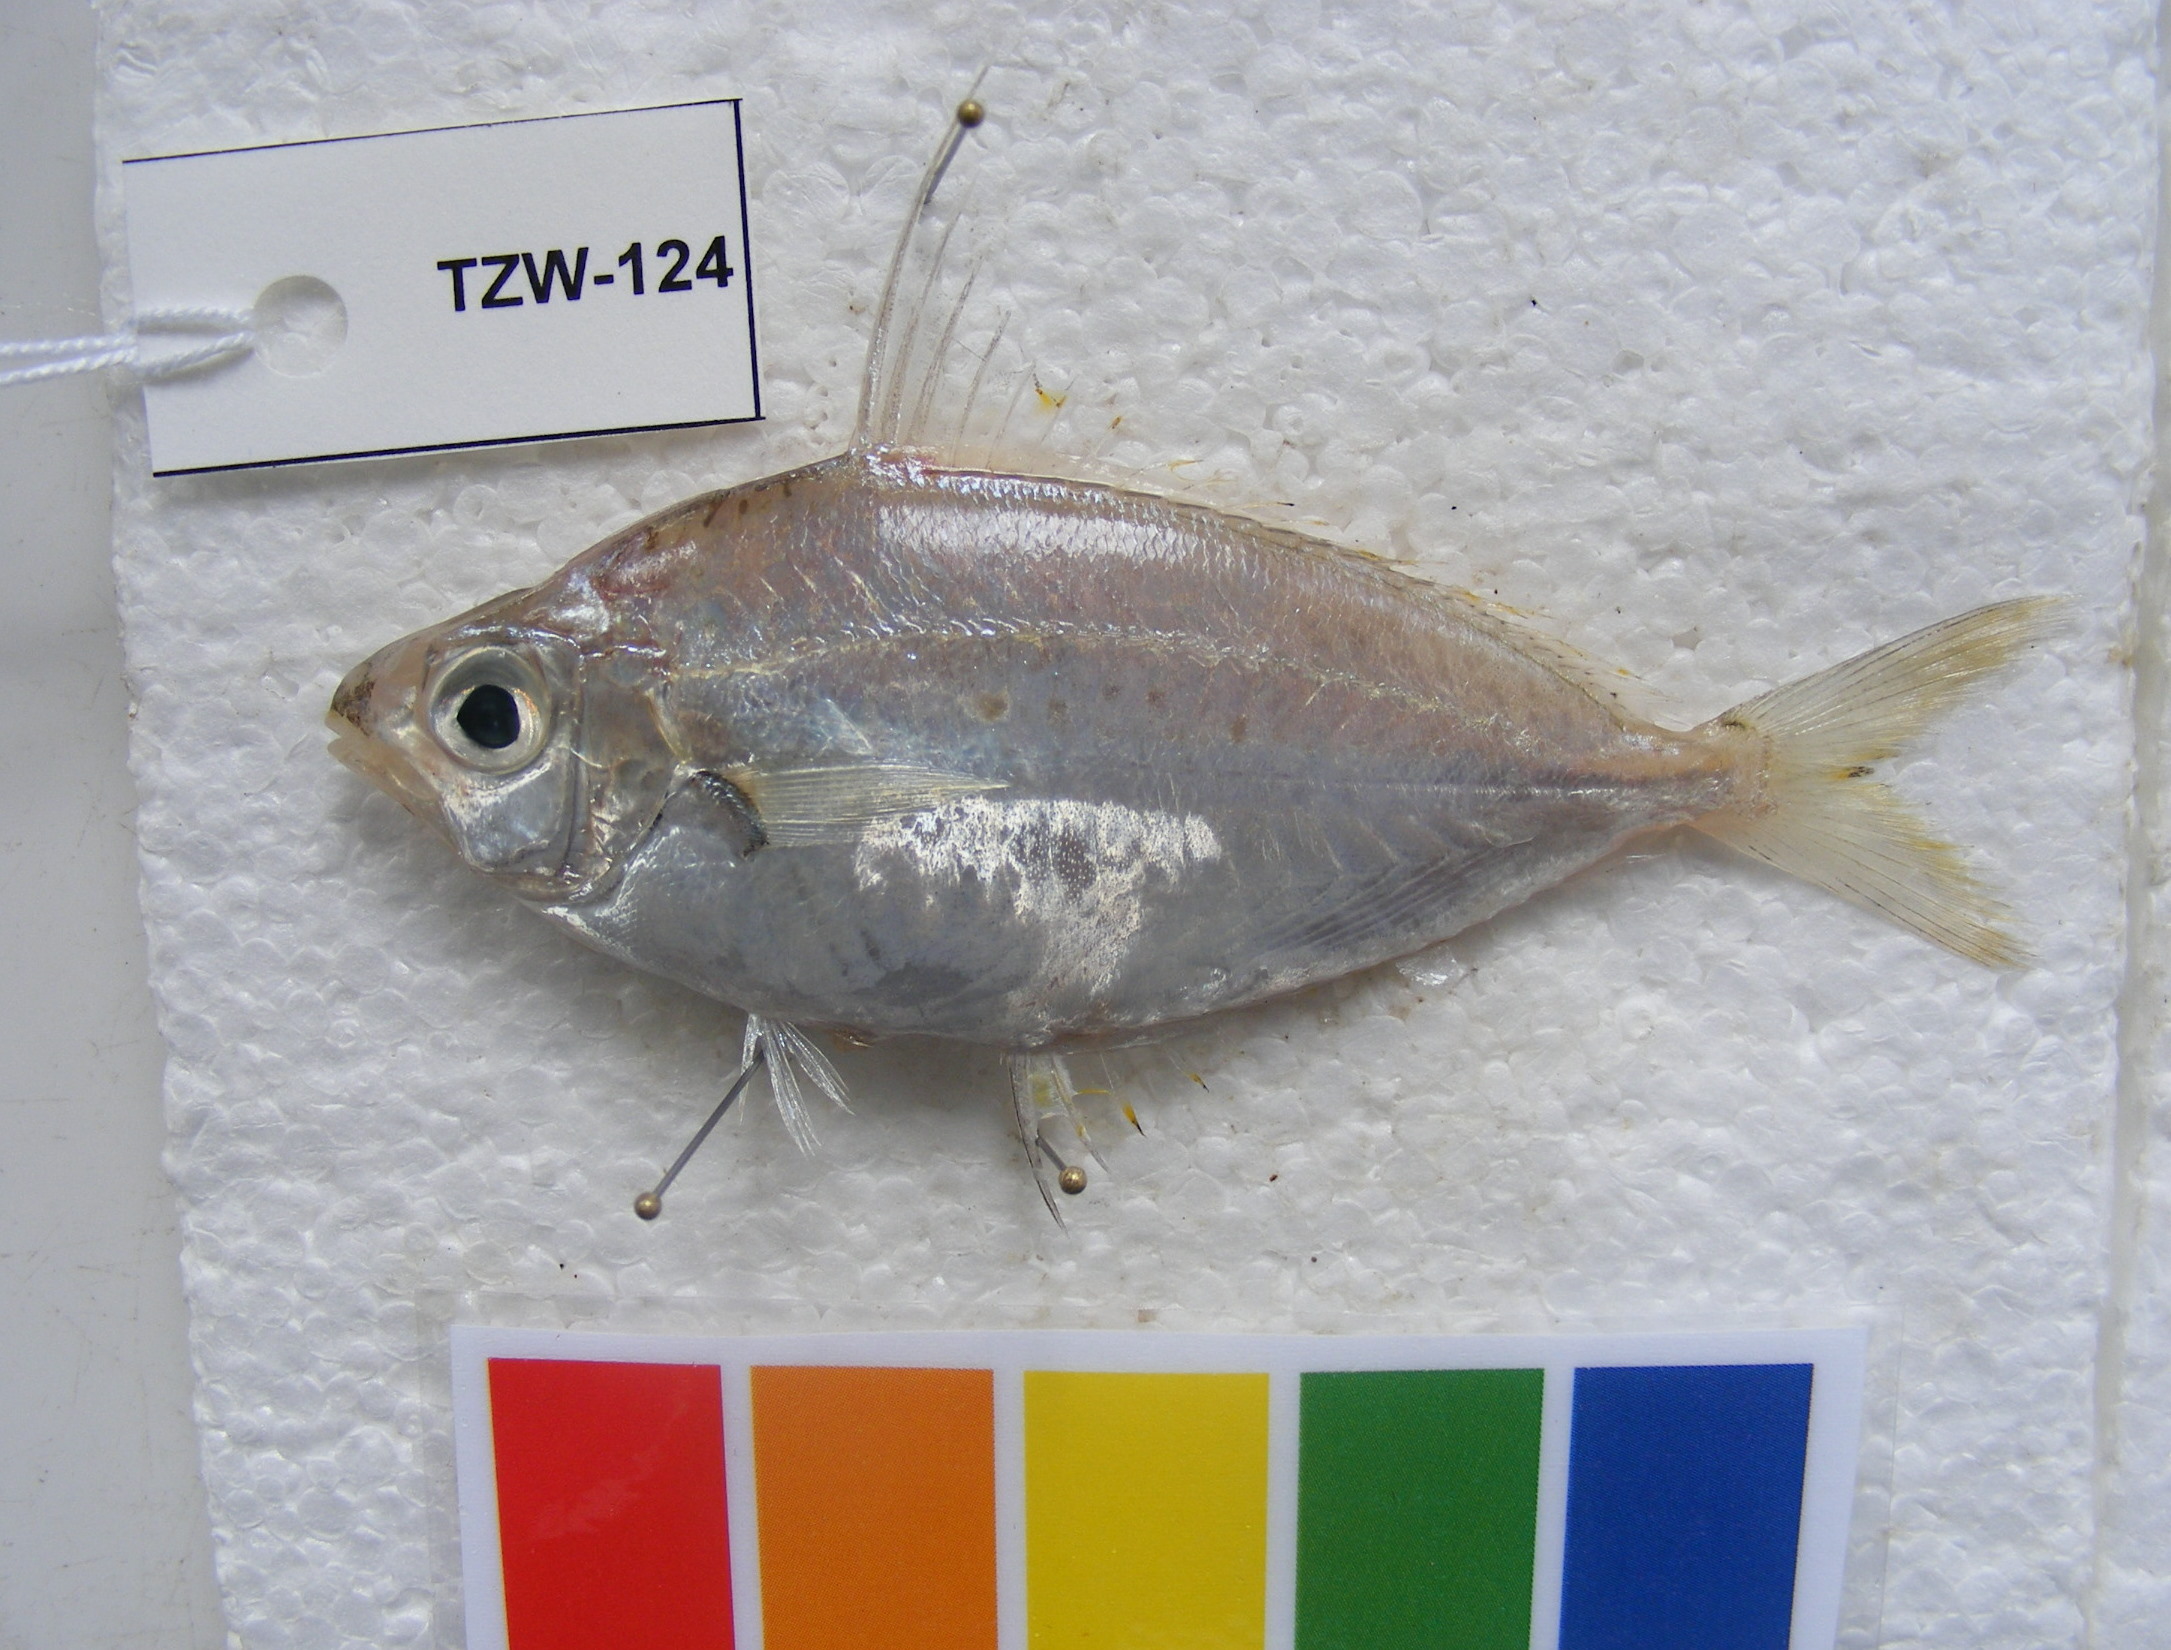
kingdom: Animalia
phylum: Chordata
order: Perciformes
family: Gerreidae
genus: Gerres
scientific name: Gerres filamentosus
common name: Whipfin silverbiddy
